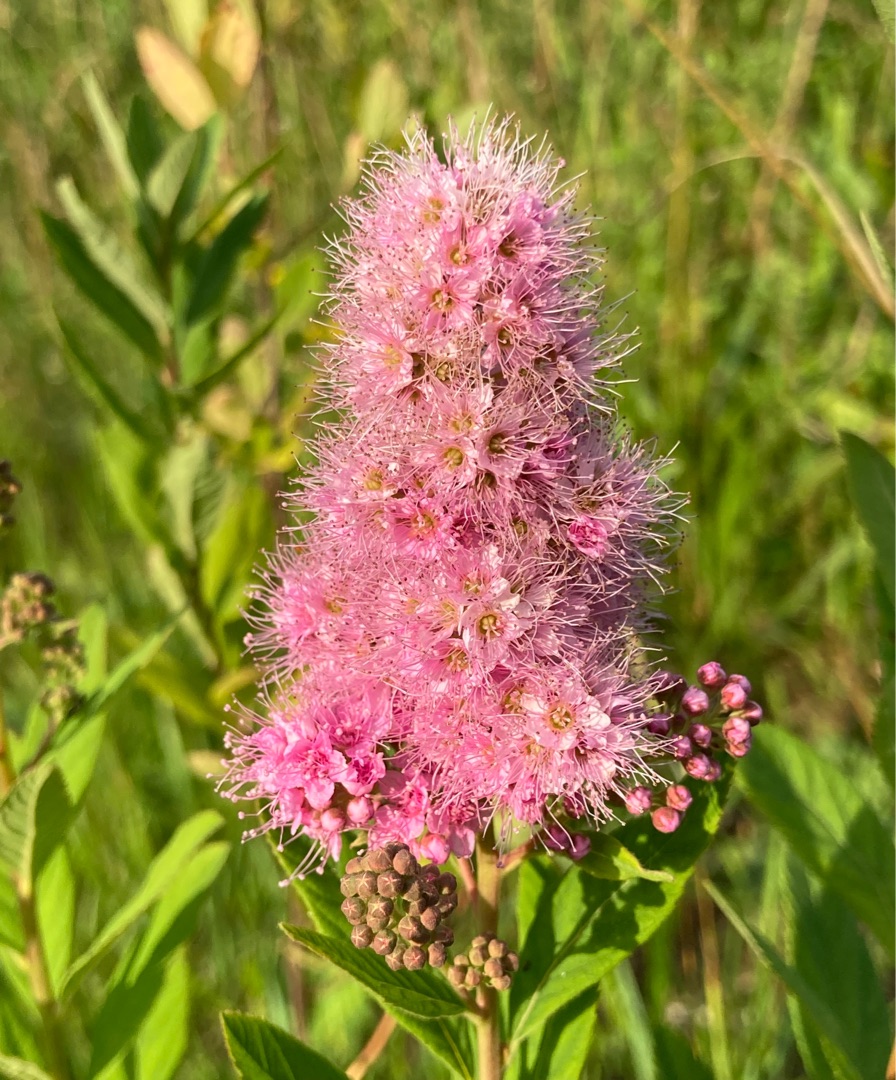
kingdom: Plantae
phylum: Tracheophyta
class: Magnoliopsida
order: Rosales
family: Rosaceae
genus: Spiraea
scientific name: Spiraea billardii
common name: Klase-spiræa
